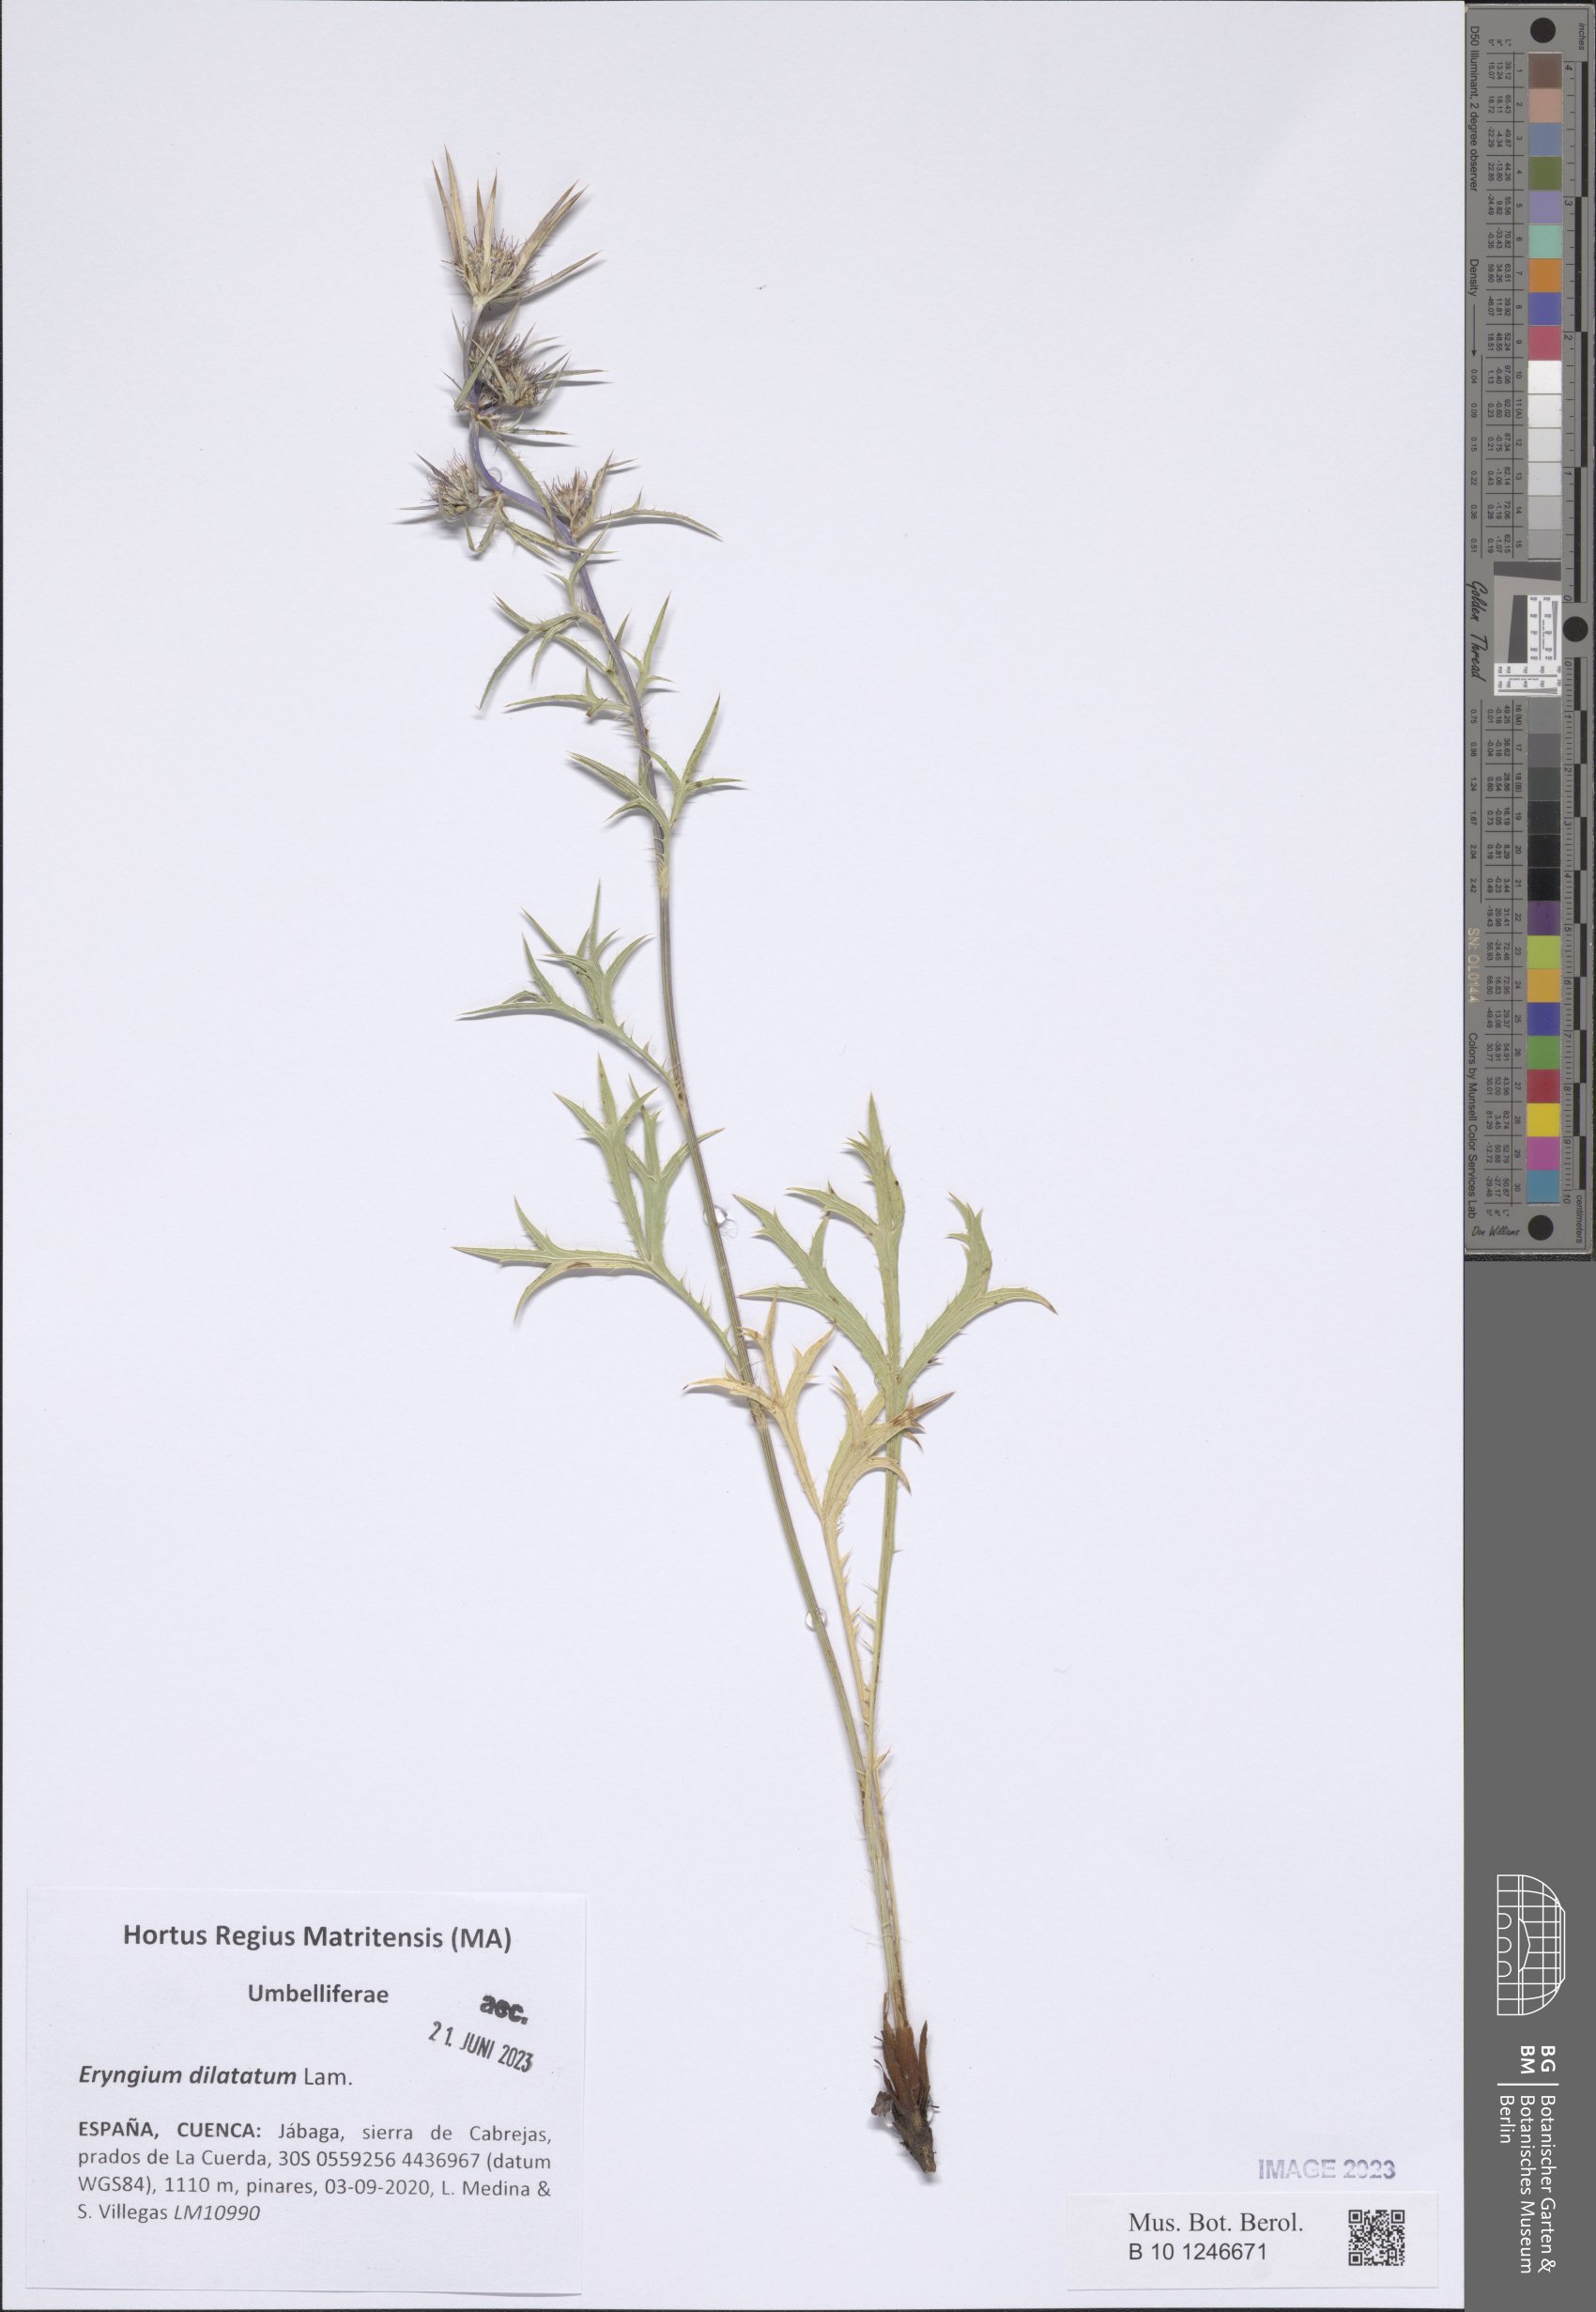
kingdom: Plantae
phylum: Tracheophyta
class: Magnoliopsida
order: Apiales
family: Apiaceae
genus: Eryngium
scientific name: Eryngium dilatatum
